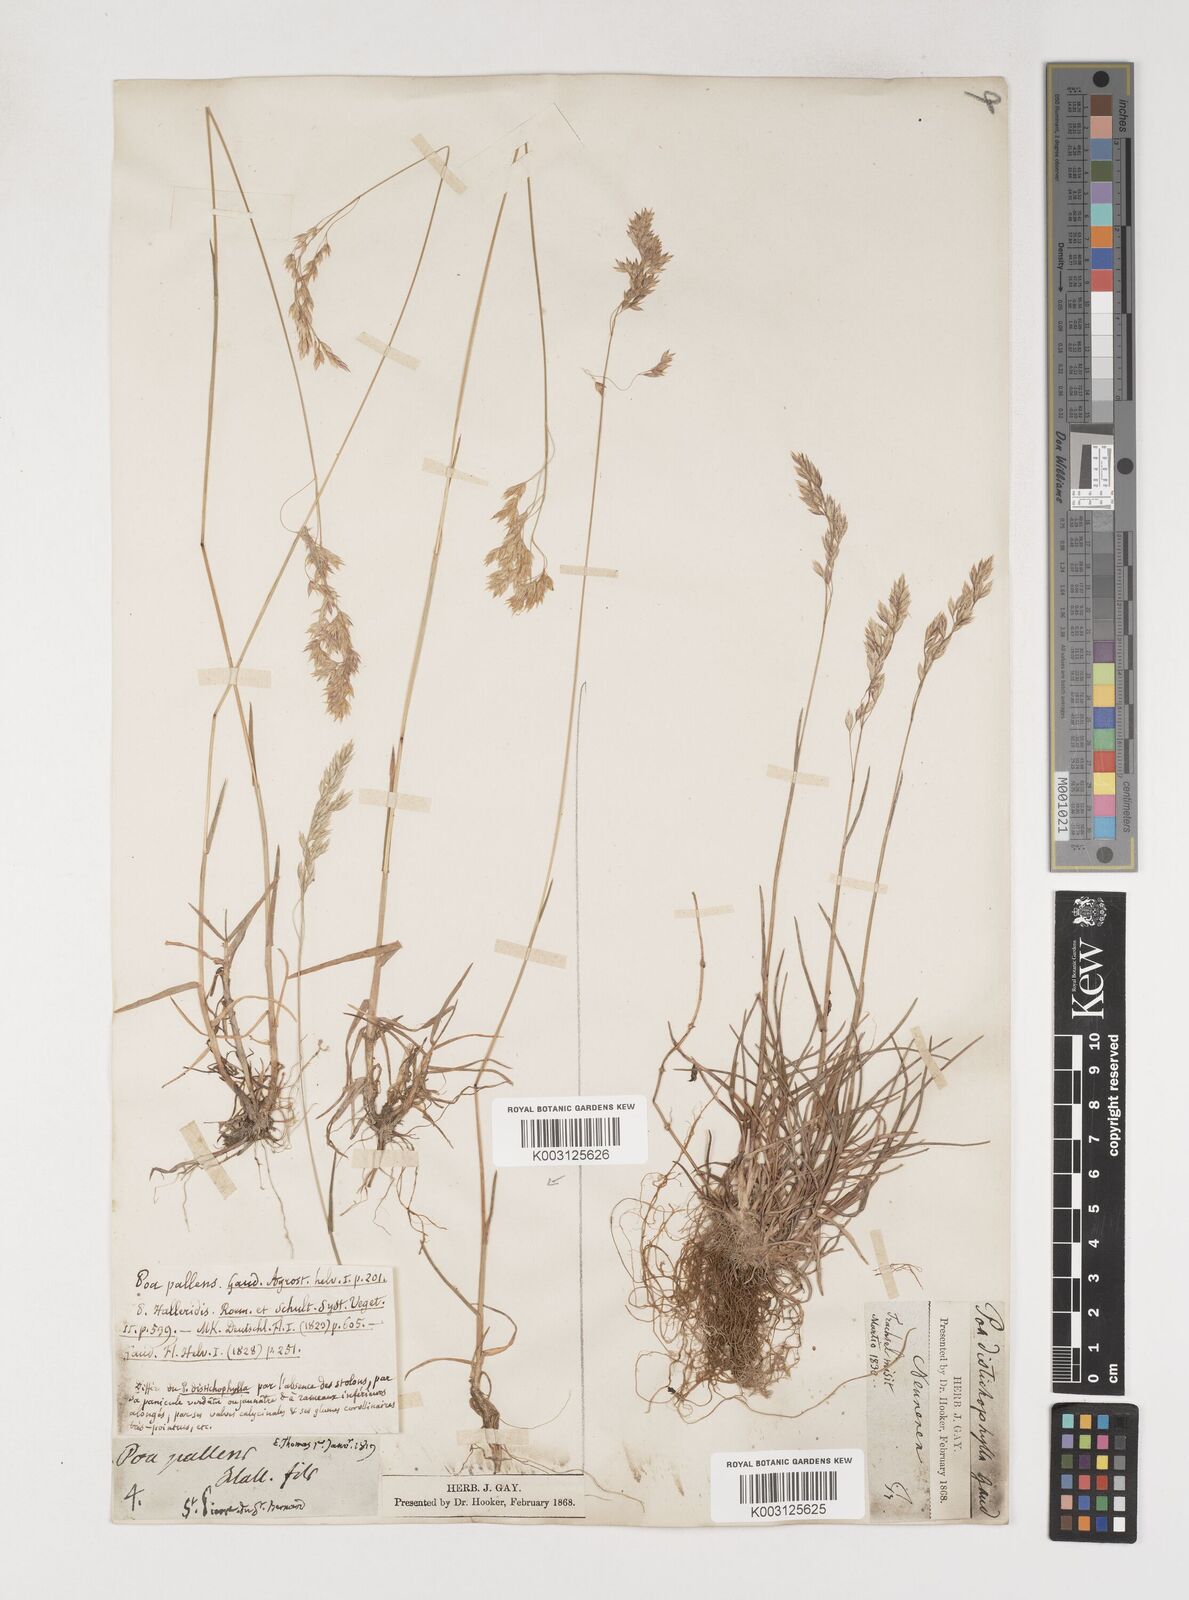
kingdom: Plantae
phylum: Tracheophyta
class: Liliopsida
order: Poales
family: Poaceae
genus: Poa
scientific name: Poa cenisia
